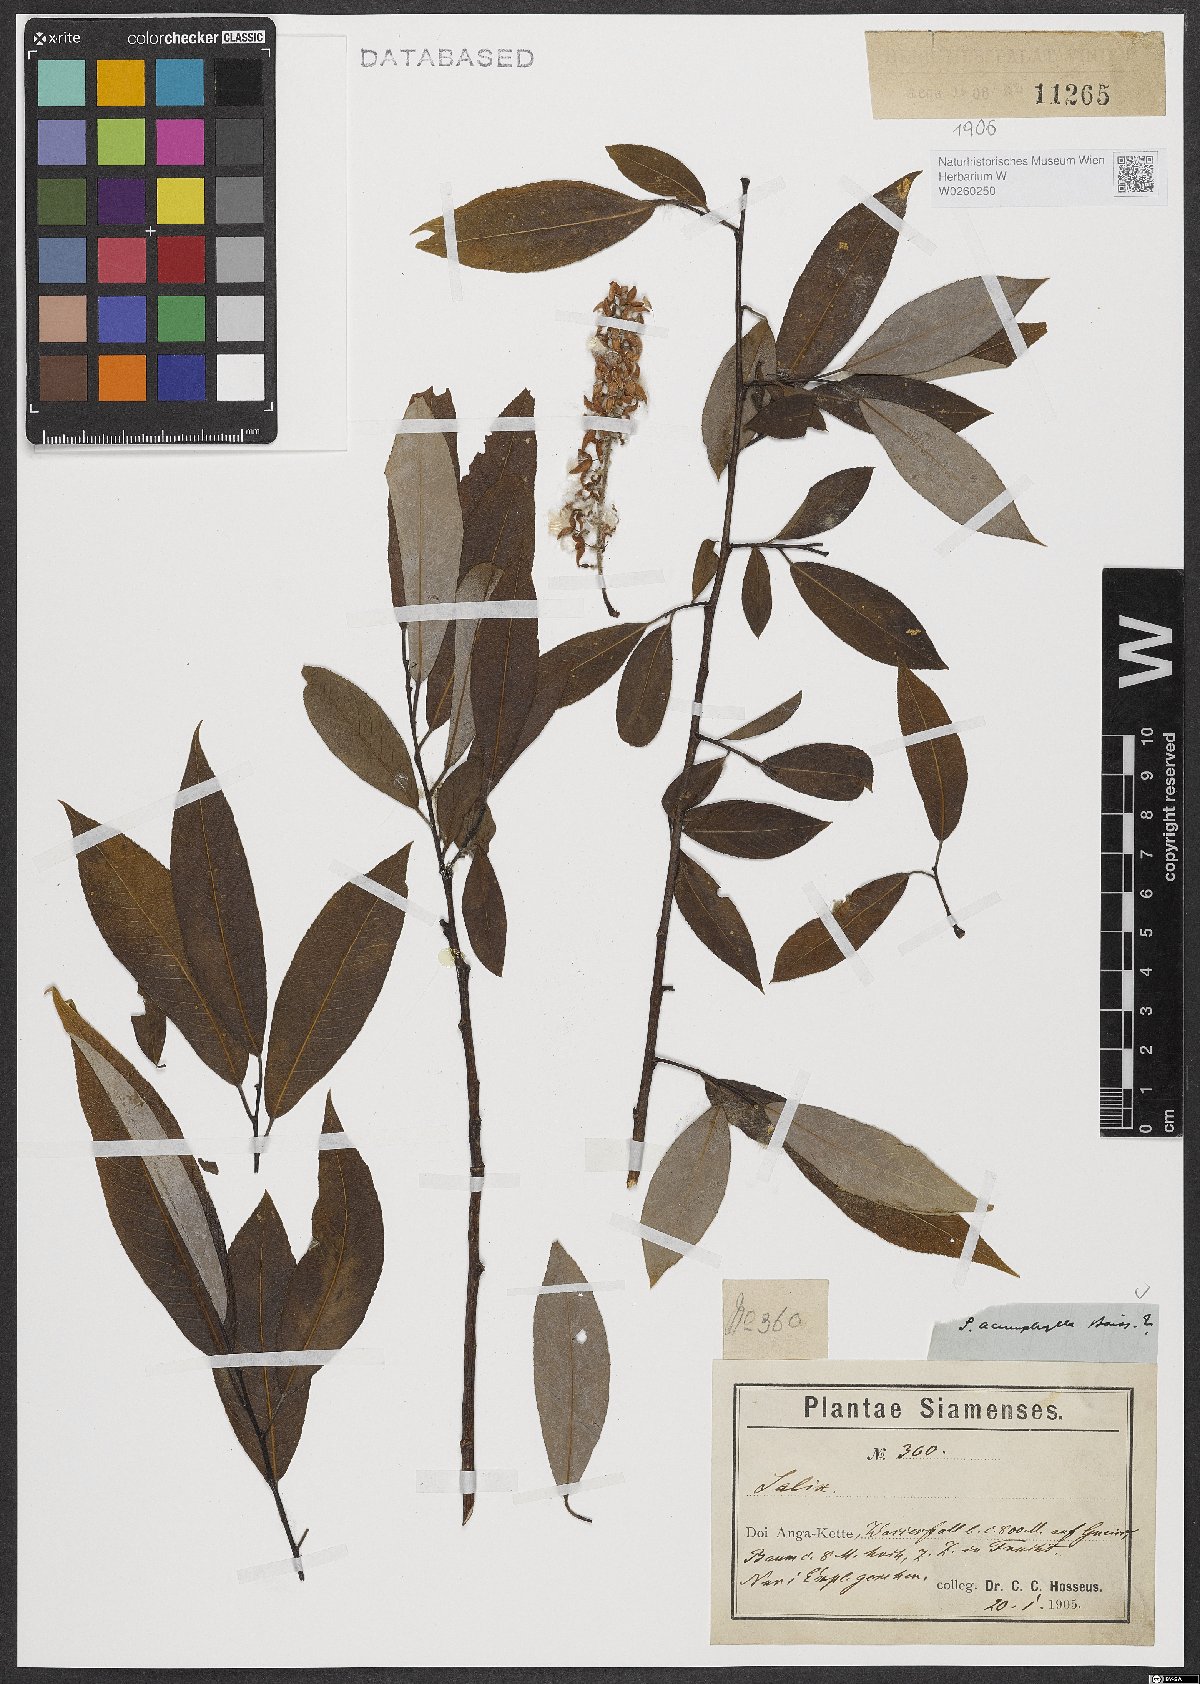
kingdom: Plantae
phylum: Tracheophyta
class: Magnoliopsida
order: Malpighiales
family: Salicaceae
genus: Salix
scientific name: Salix acmophylla
